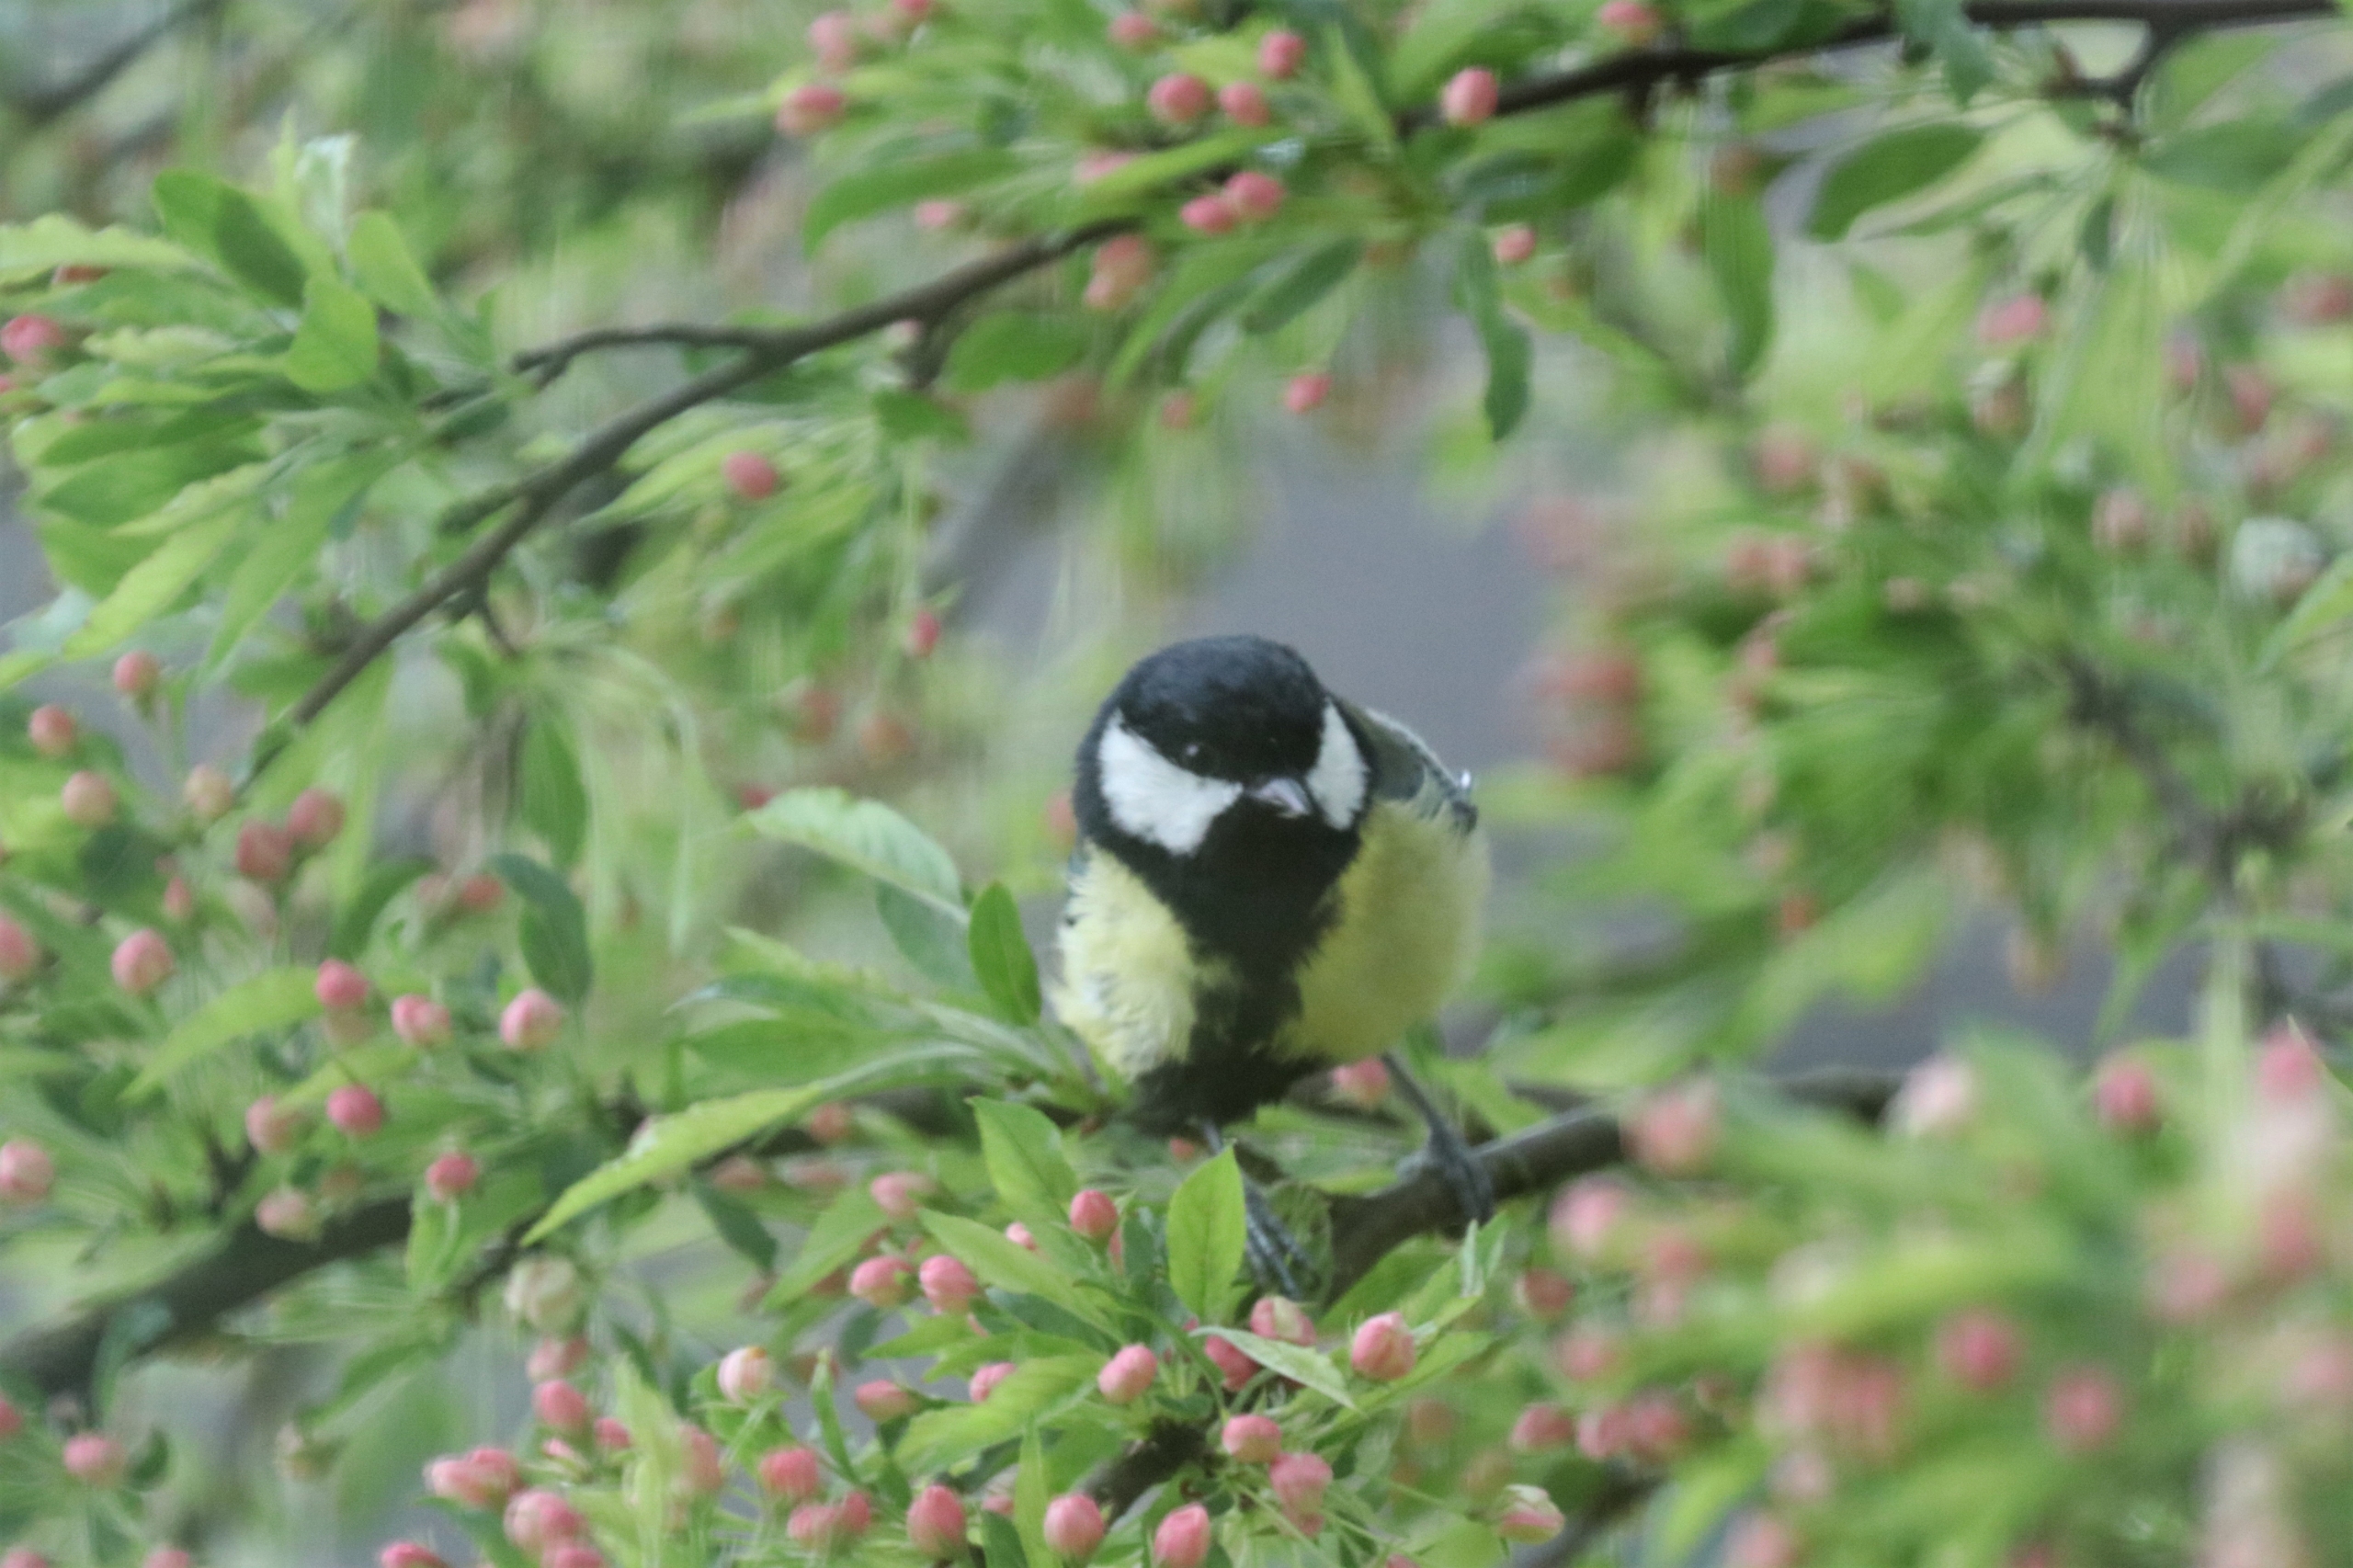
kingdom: Animalia
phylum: Chordata
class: Aves
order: Passeriformes
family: Paridae
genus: Parus
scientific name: Parus major
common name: Musvit
